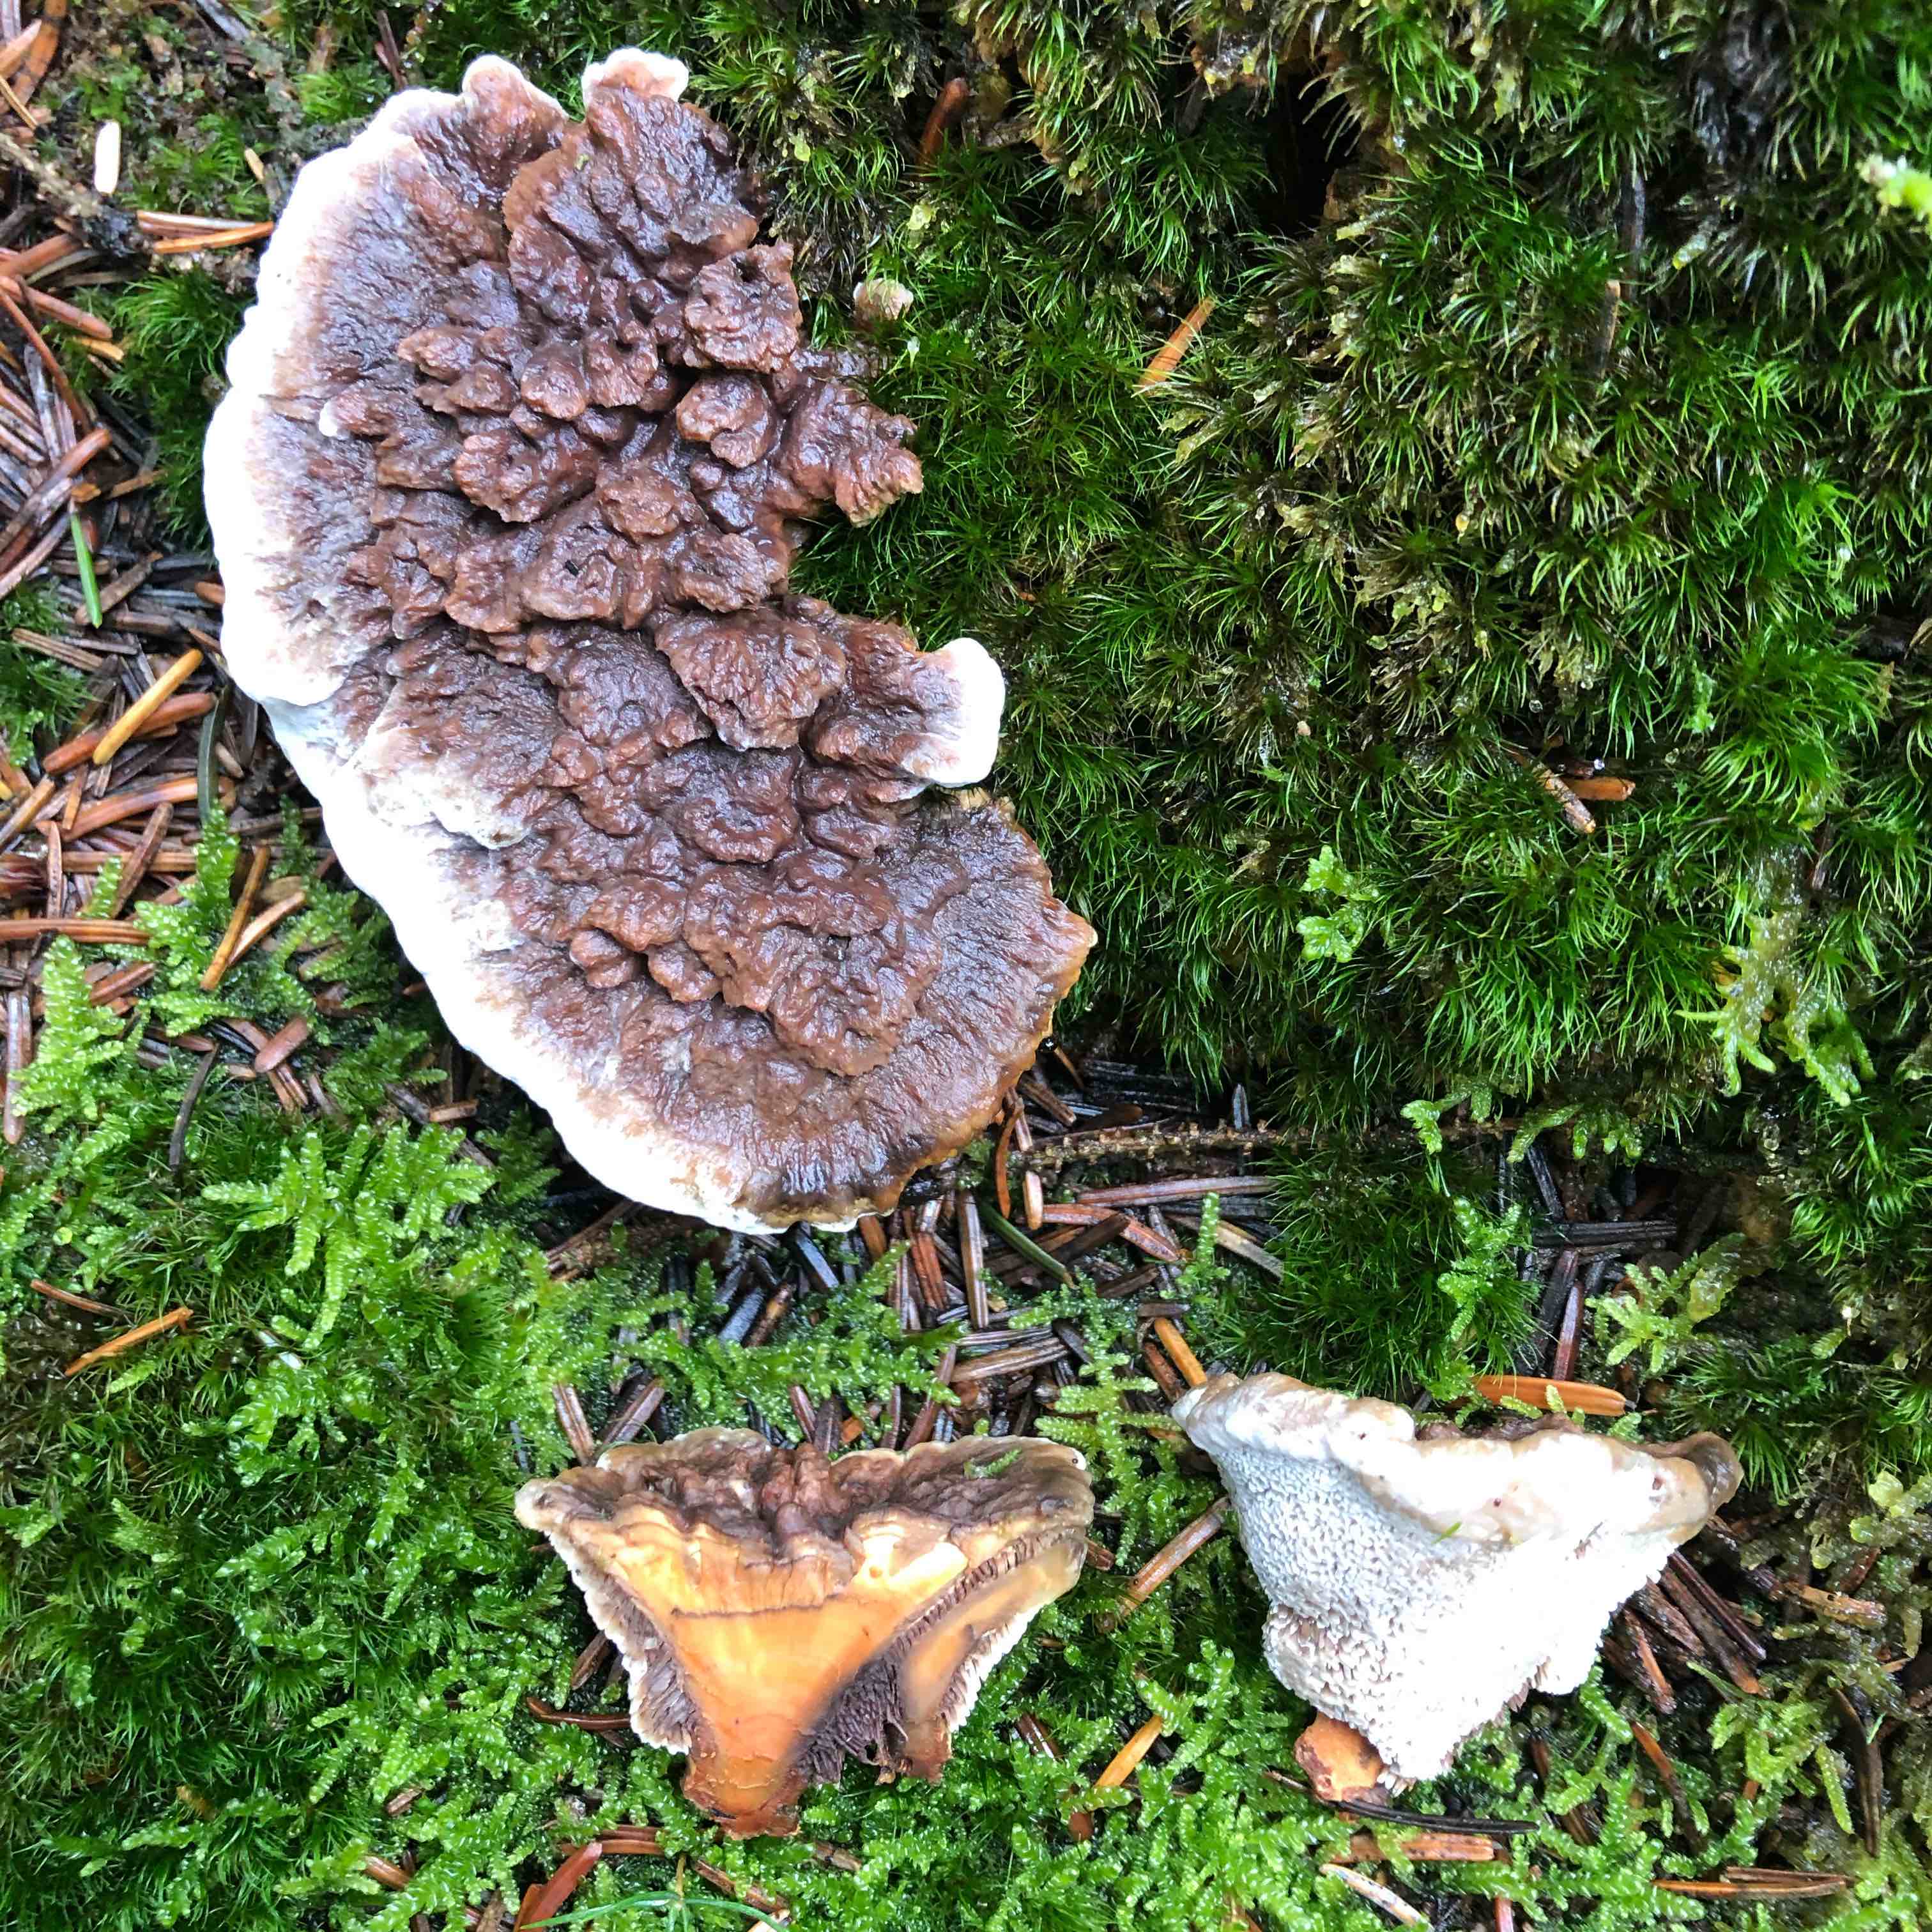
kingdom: Fungi
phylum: Basidiomycota
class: Agaricomycetes
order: Thelephorales
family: Bankeraceae
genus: Hydnellum
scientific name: Hydnellum aurantiacum
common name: orange korkpigsvamp
